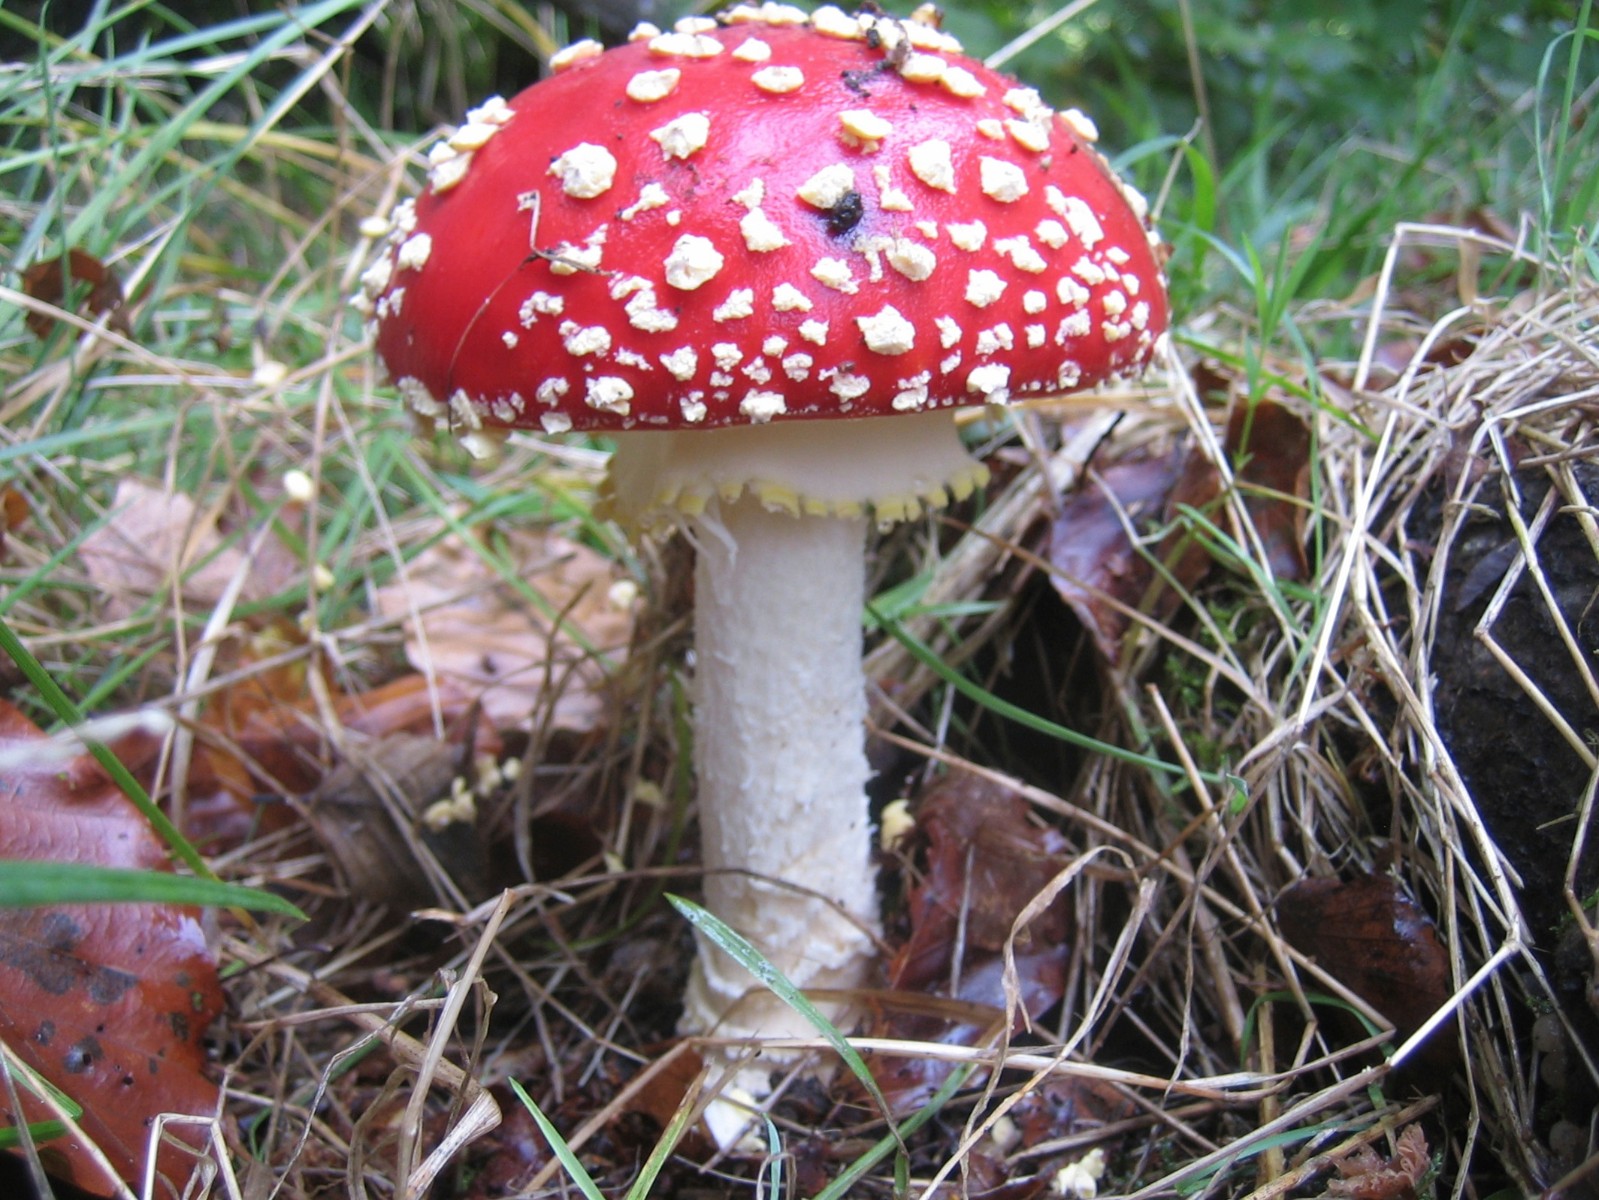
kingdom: Fungi
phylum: Basidiomycota
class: Agaricomycetes
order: Agaricales
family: Amanitaceae
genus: Amanita
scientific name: Amanita muscaria
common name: rød fluesvamp
